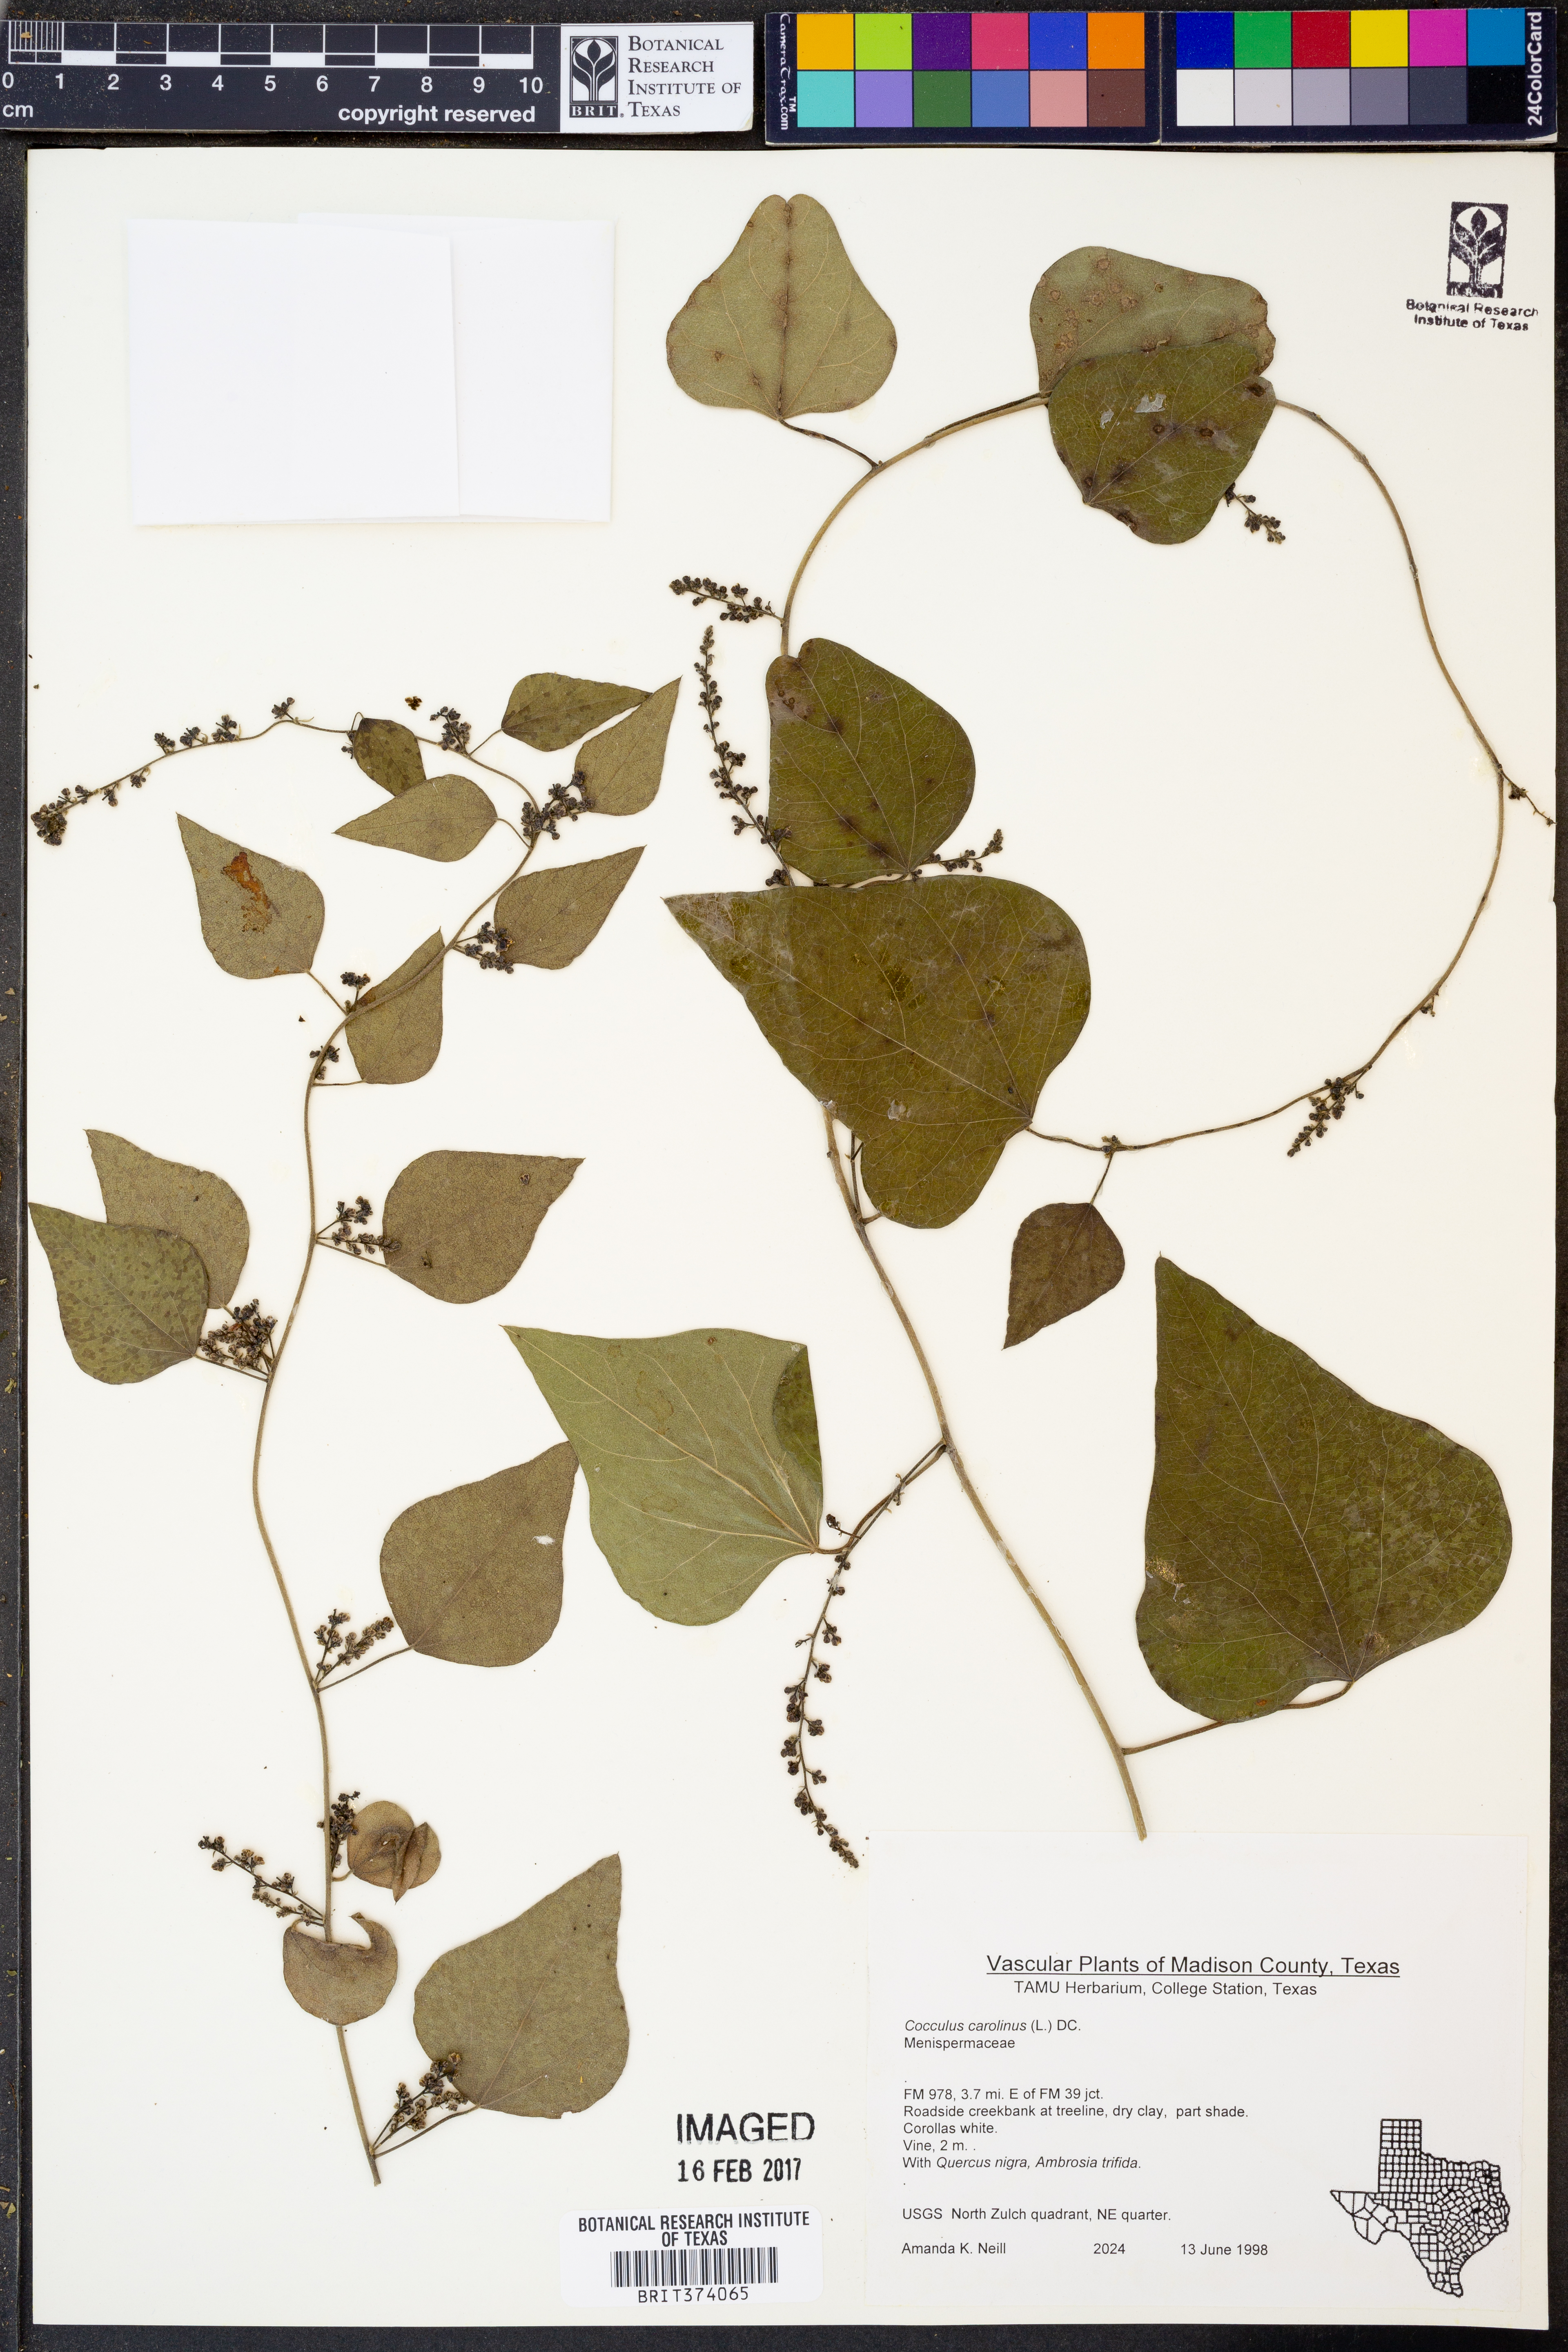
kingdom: Plantae
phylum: Tracheophyta
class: Magnoliopsida
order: Ranunculales
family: Menispermaceae
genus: Cocculus
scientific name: Cocculus carolinus
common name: Carolina moonseed
